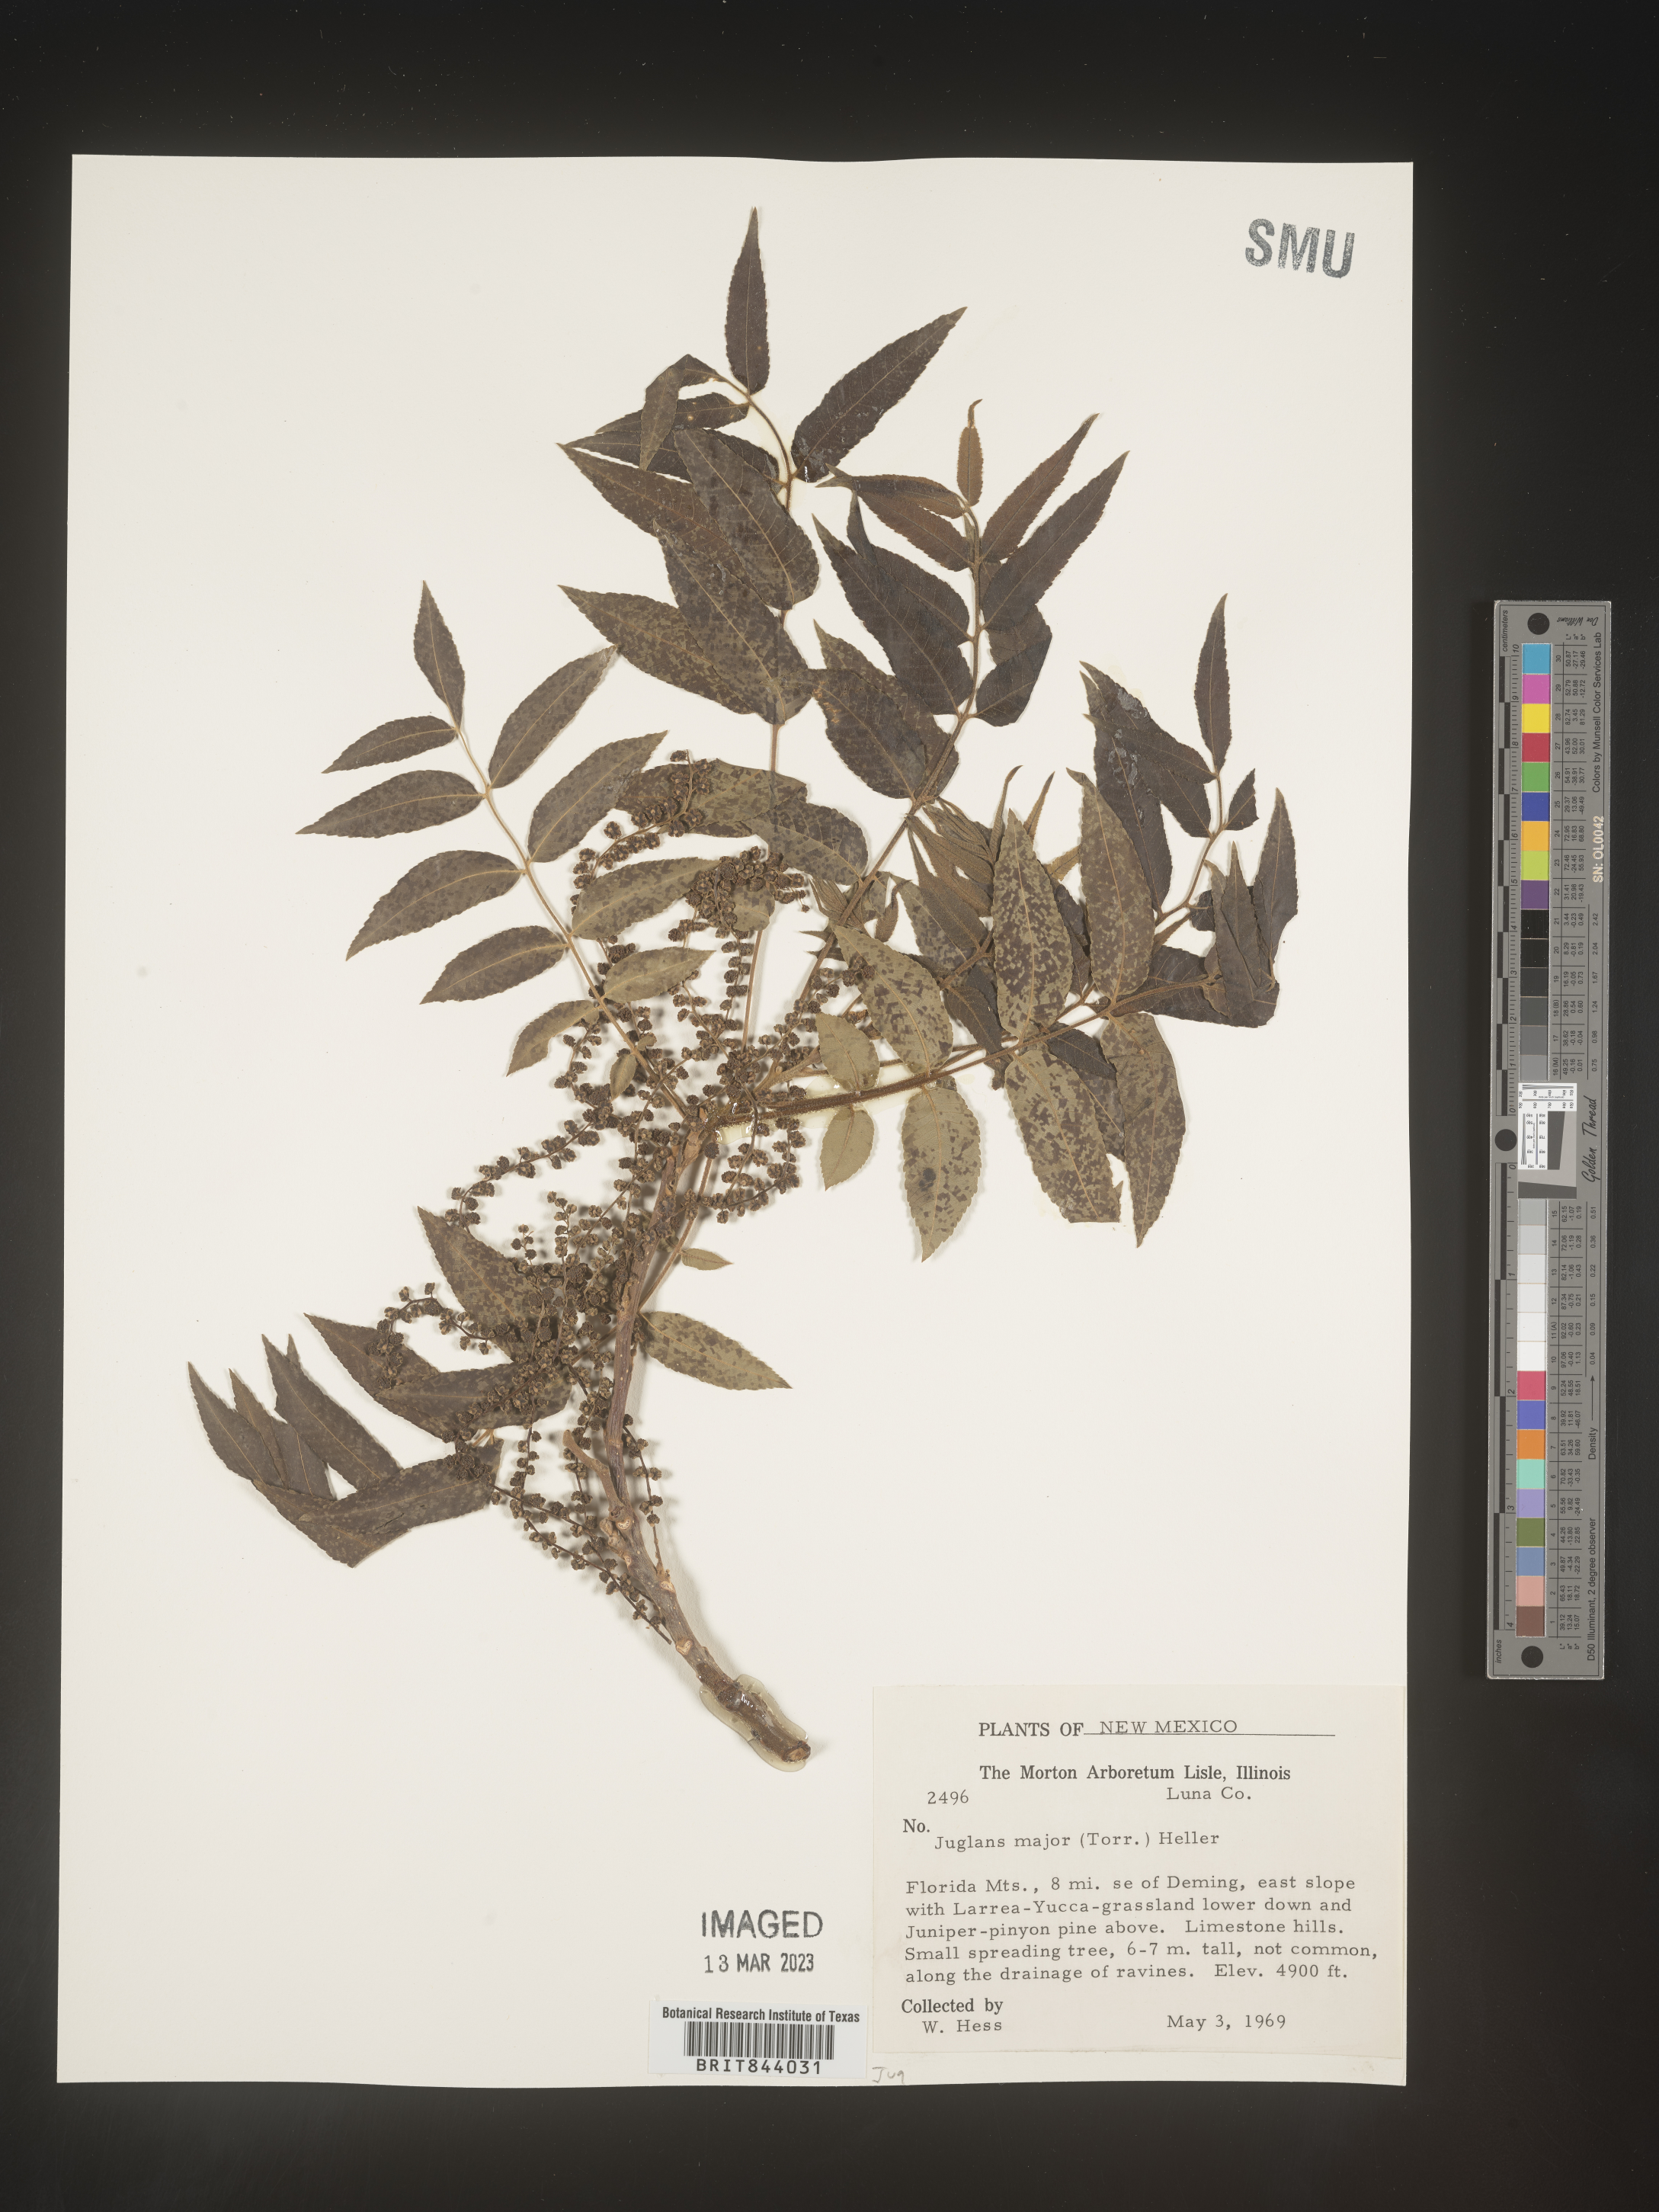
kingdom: Plantae
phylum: Tracheophyta
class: Magnoliopsida
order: Fagales
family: Juglandaceae
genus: Juglans
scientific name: Juglans major
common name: Arizona walnut
